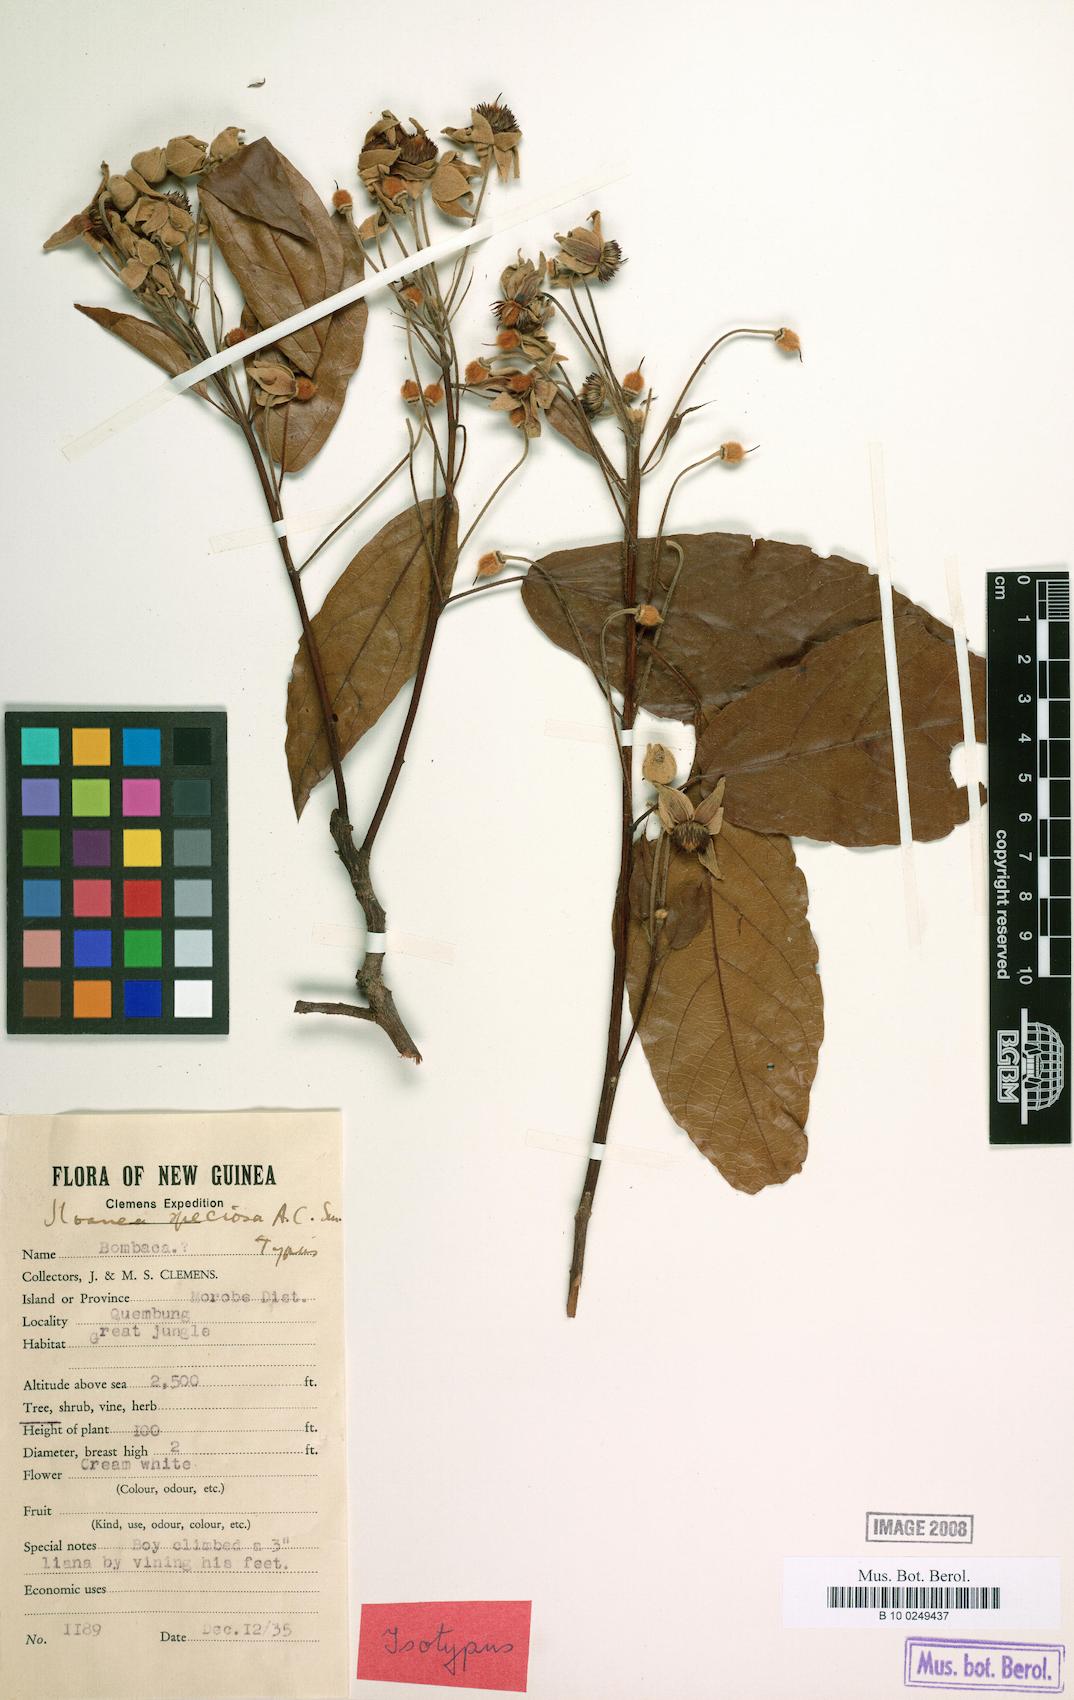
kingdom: Plantae
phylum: Tracheophyta
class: Magnoliopsida
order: Oxalidales
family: Elaeocarpaceae
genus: Sloanea
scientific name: Sloanea aculeata
